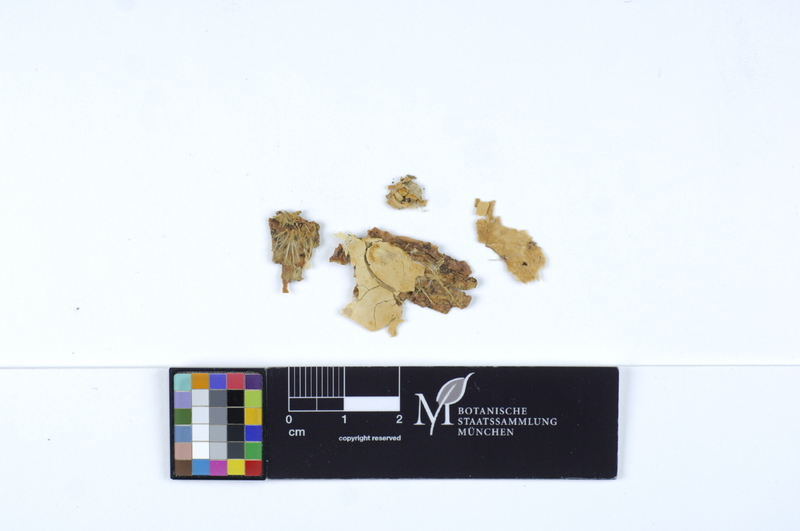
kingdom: Fungi
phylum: Basidiomycota
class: Agaricomycetes
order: Polyporales
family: Phanerochaetaceae
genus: Rhizochaete
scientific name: Rhizochaete violascens
